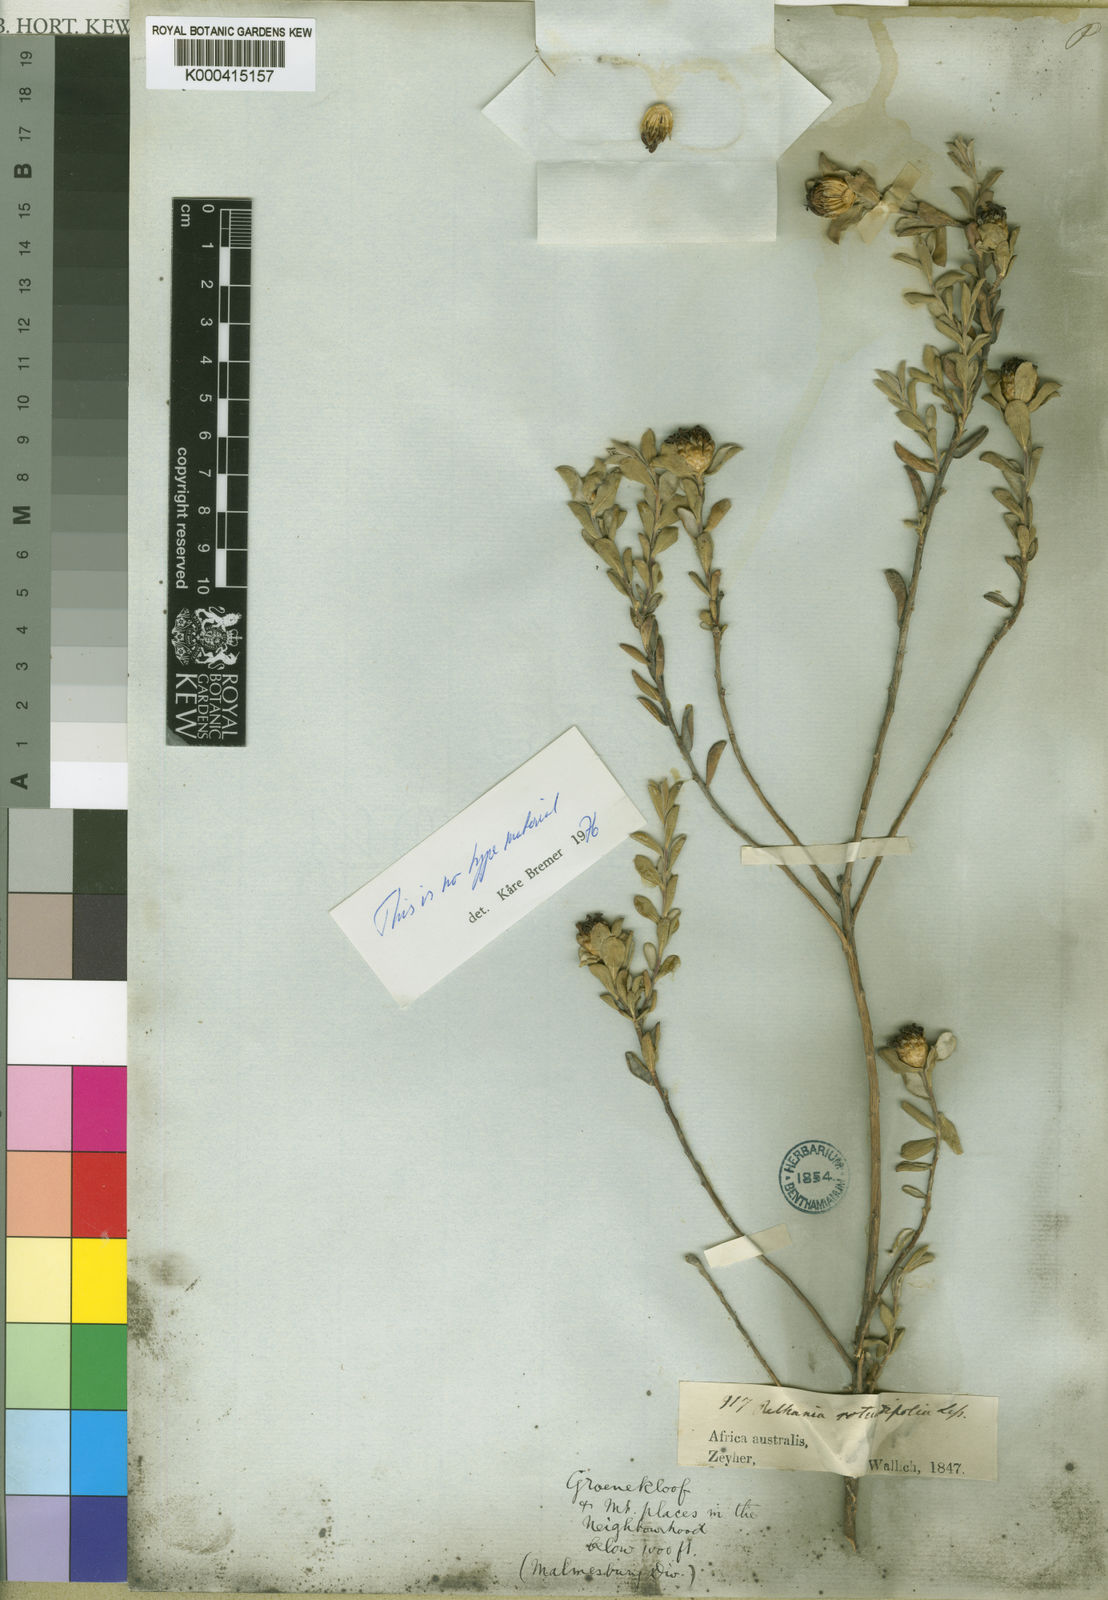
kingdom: Plantae
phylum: Tracheophyta
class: Magnoliopsida
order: Asterales
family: Asteraceae
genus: Oedera
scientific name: Oedera rotundifolia
